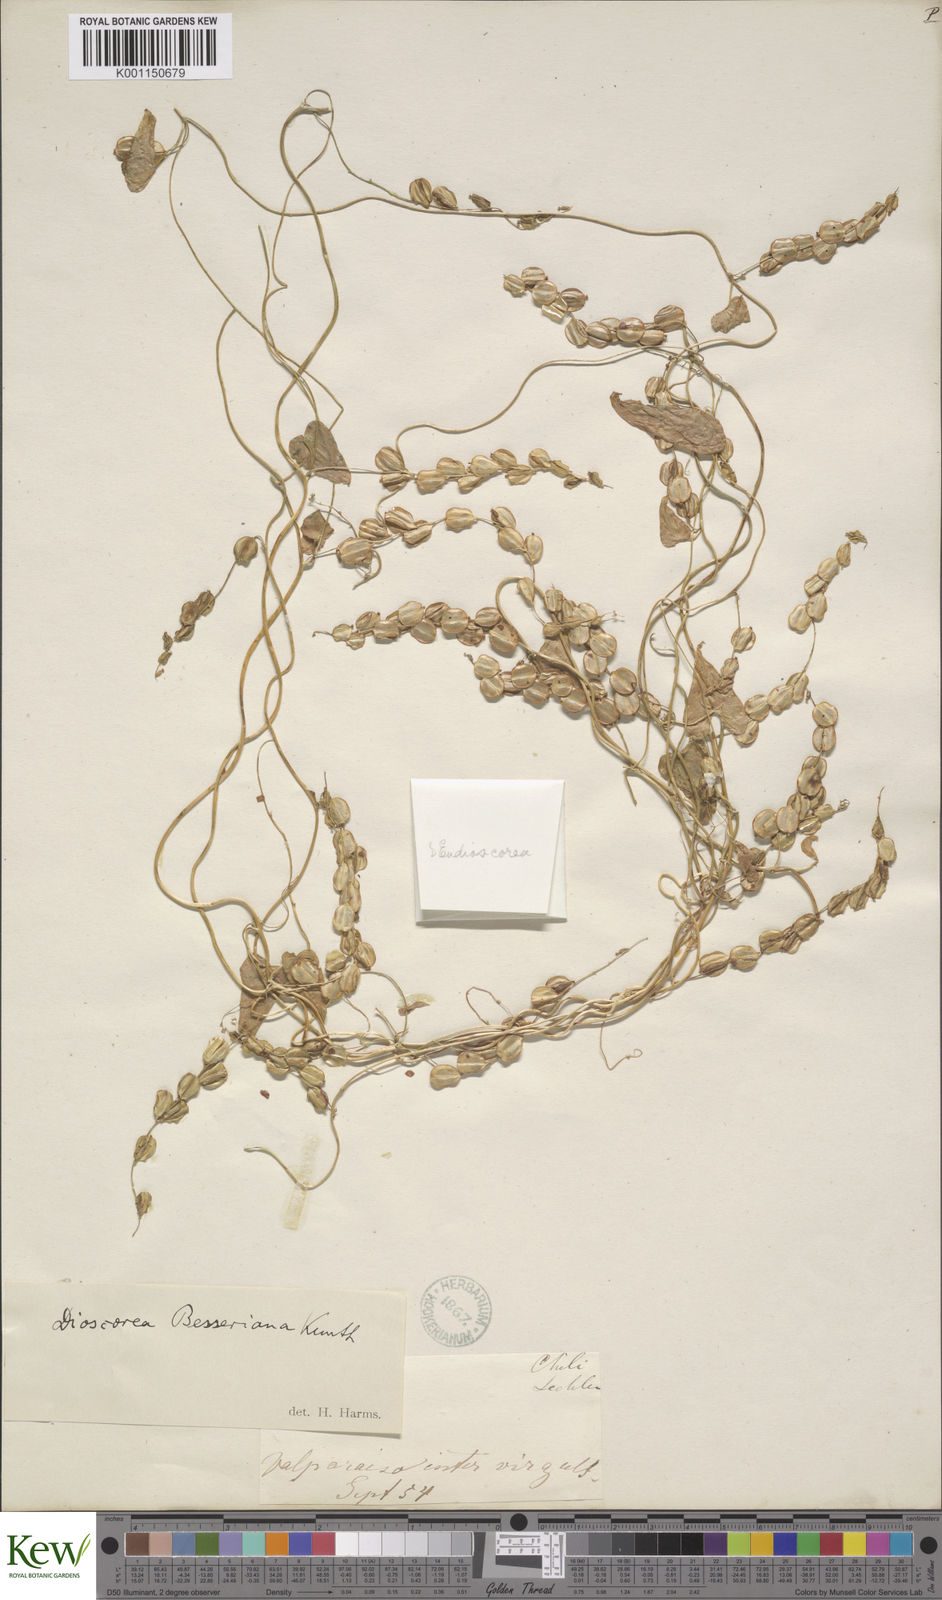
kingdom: Plantae
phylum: Tracheophyta
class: Liliopsida
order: Dioscoreales
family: Dioscoreaceae
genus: Dioscorea
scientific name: Dioscorea besseriana
